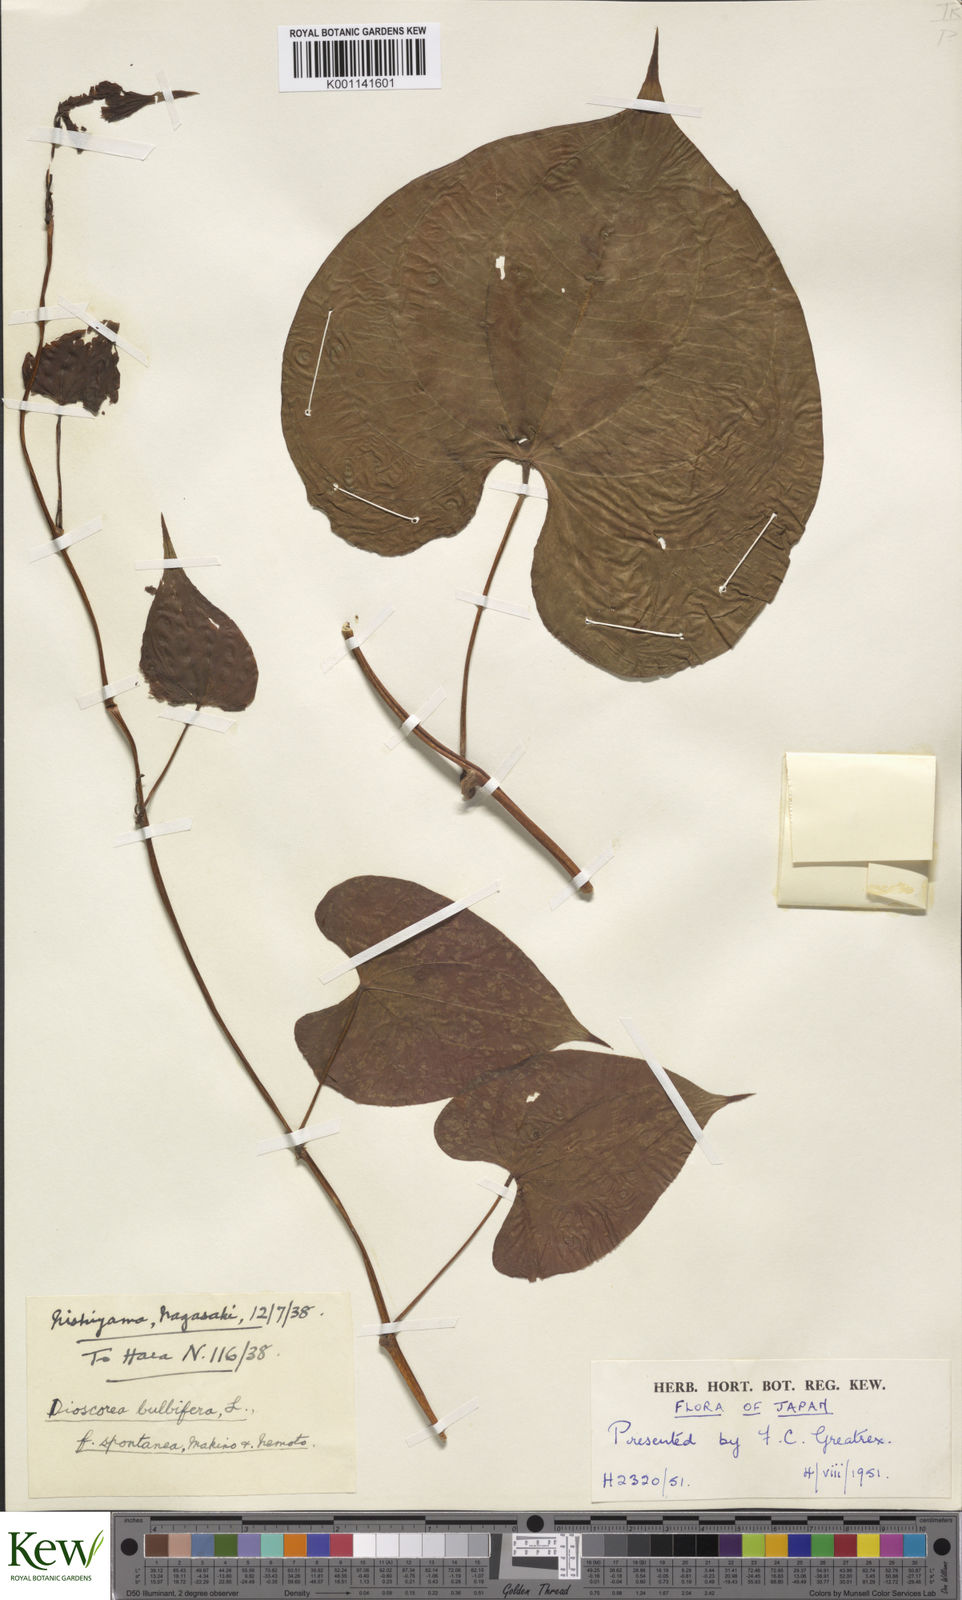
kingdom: Plantae
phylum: Tracheophyta
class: Liliopsida
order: Dioscoreales
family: Dioscoreaceae
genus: Dioscorea
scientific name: Dioscorea bulbifera
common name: Air yam
